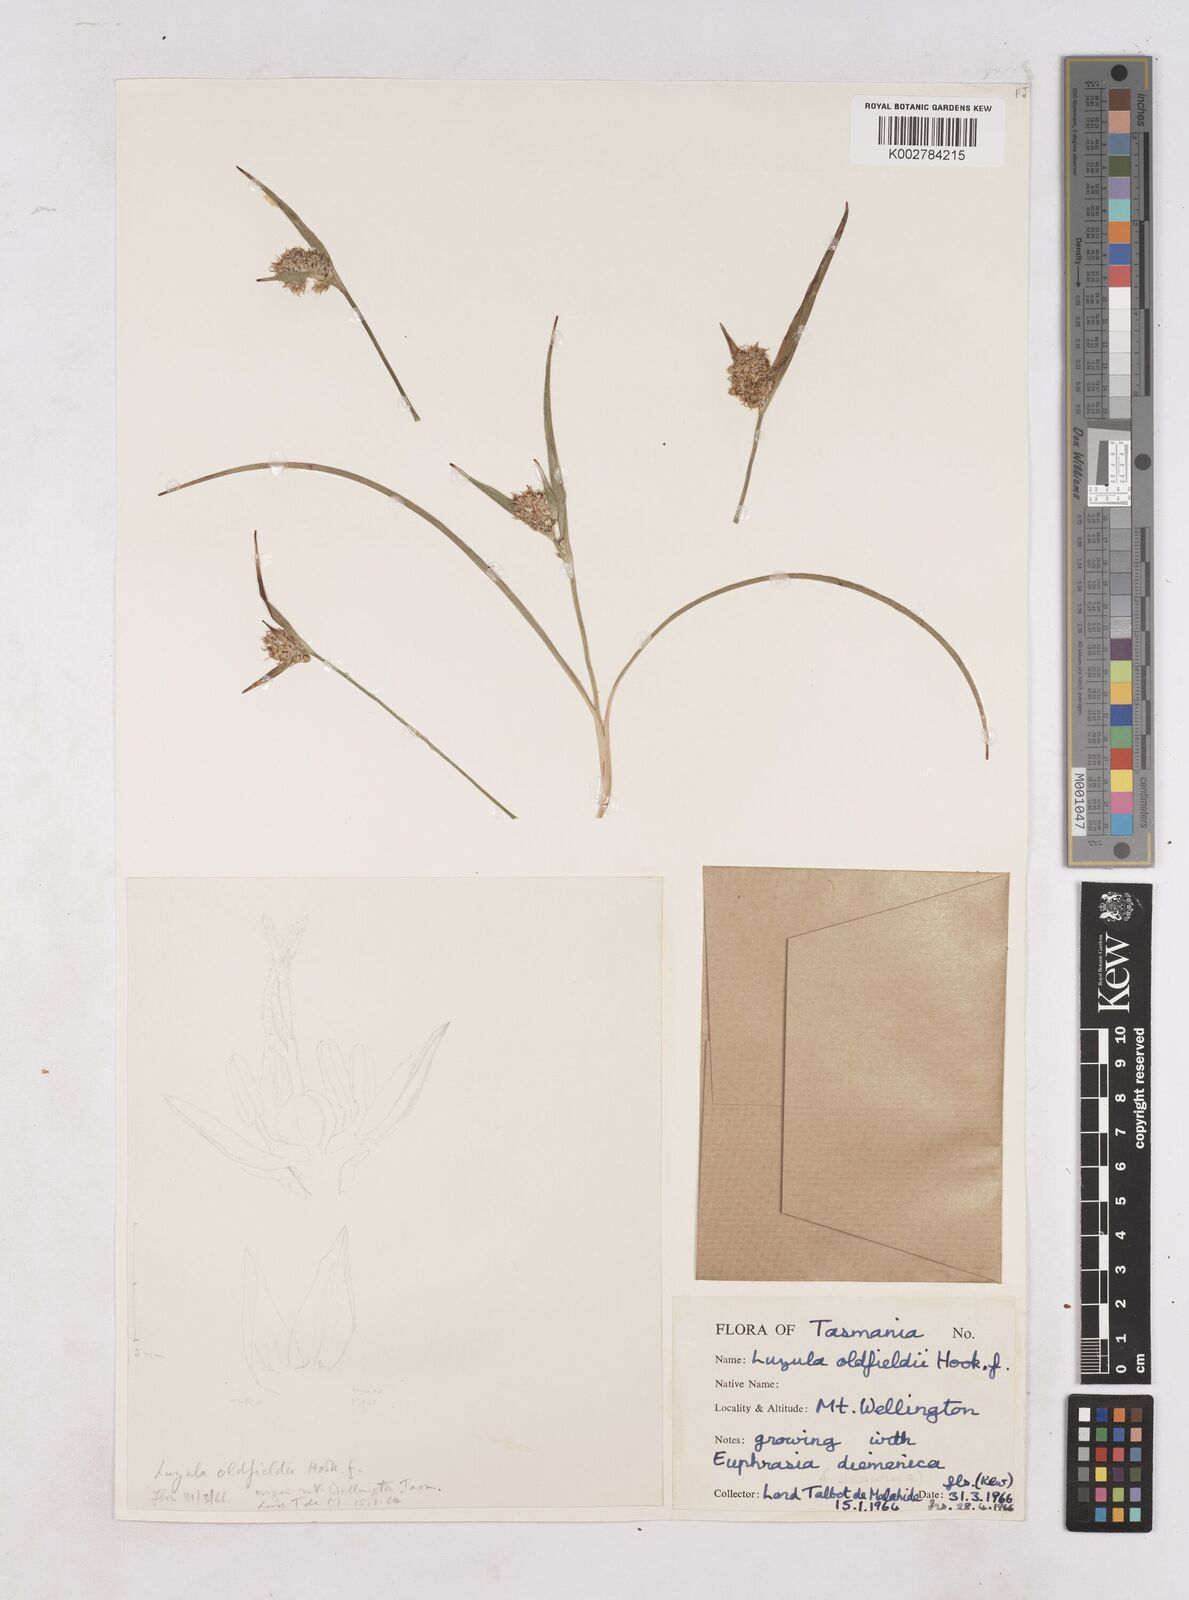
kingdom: Plantae
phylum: Tracheophyta
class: Liliopsida
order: Poales
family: Juncaceae
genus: Luzula
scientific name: Luzula australasica
